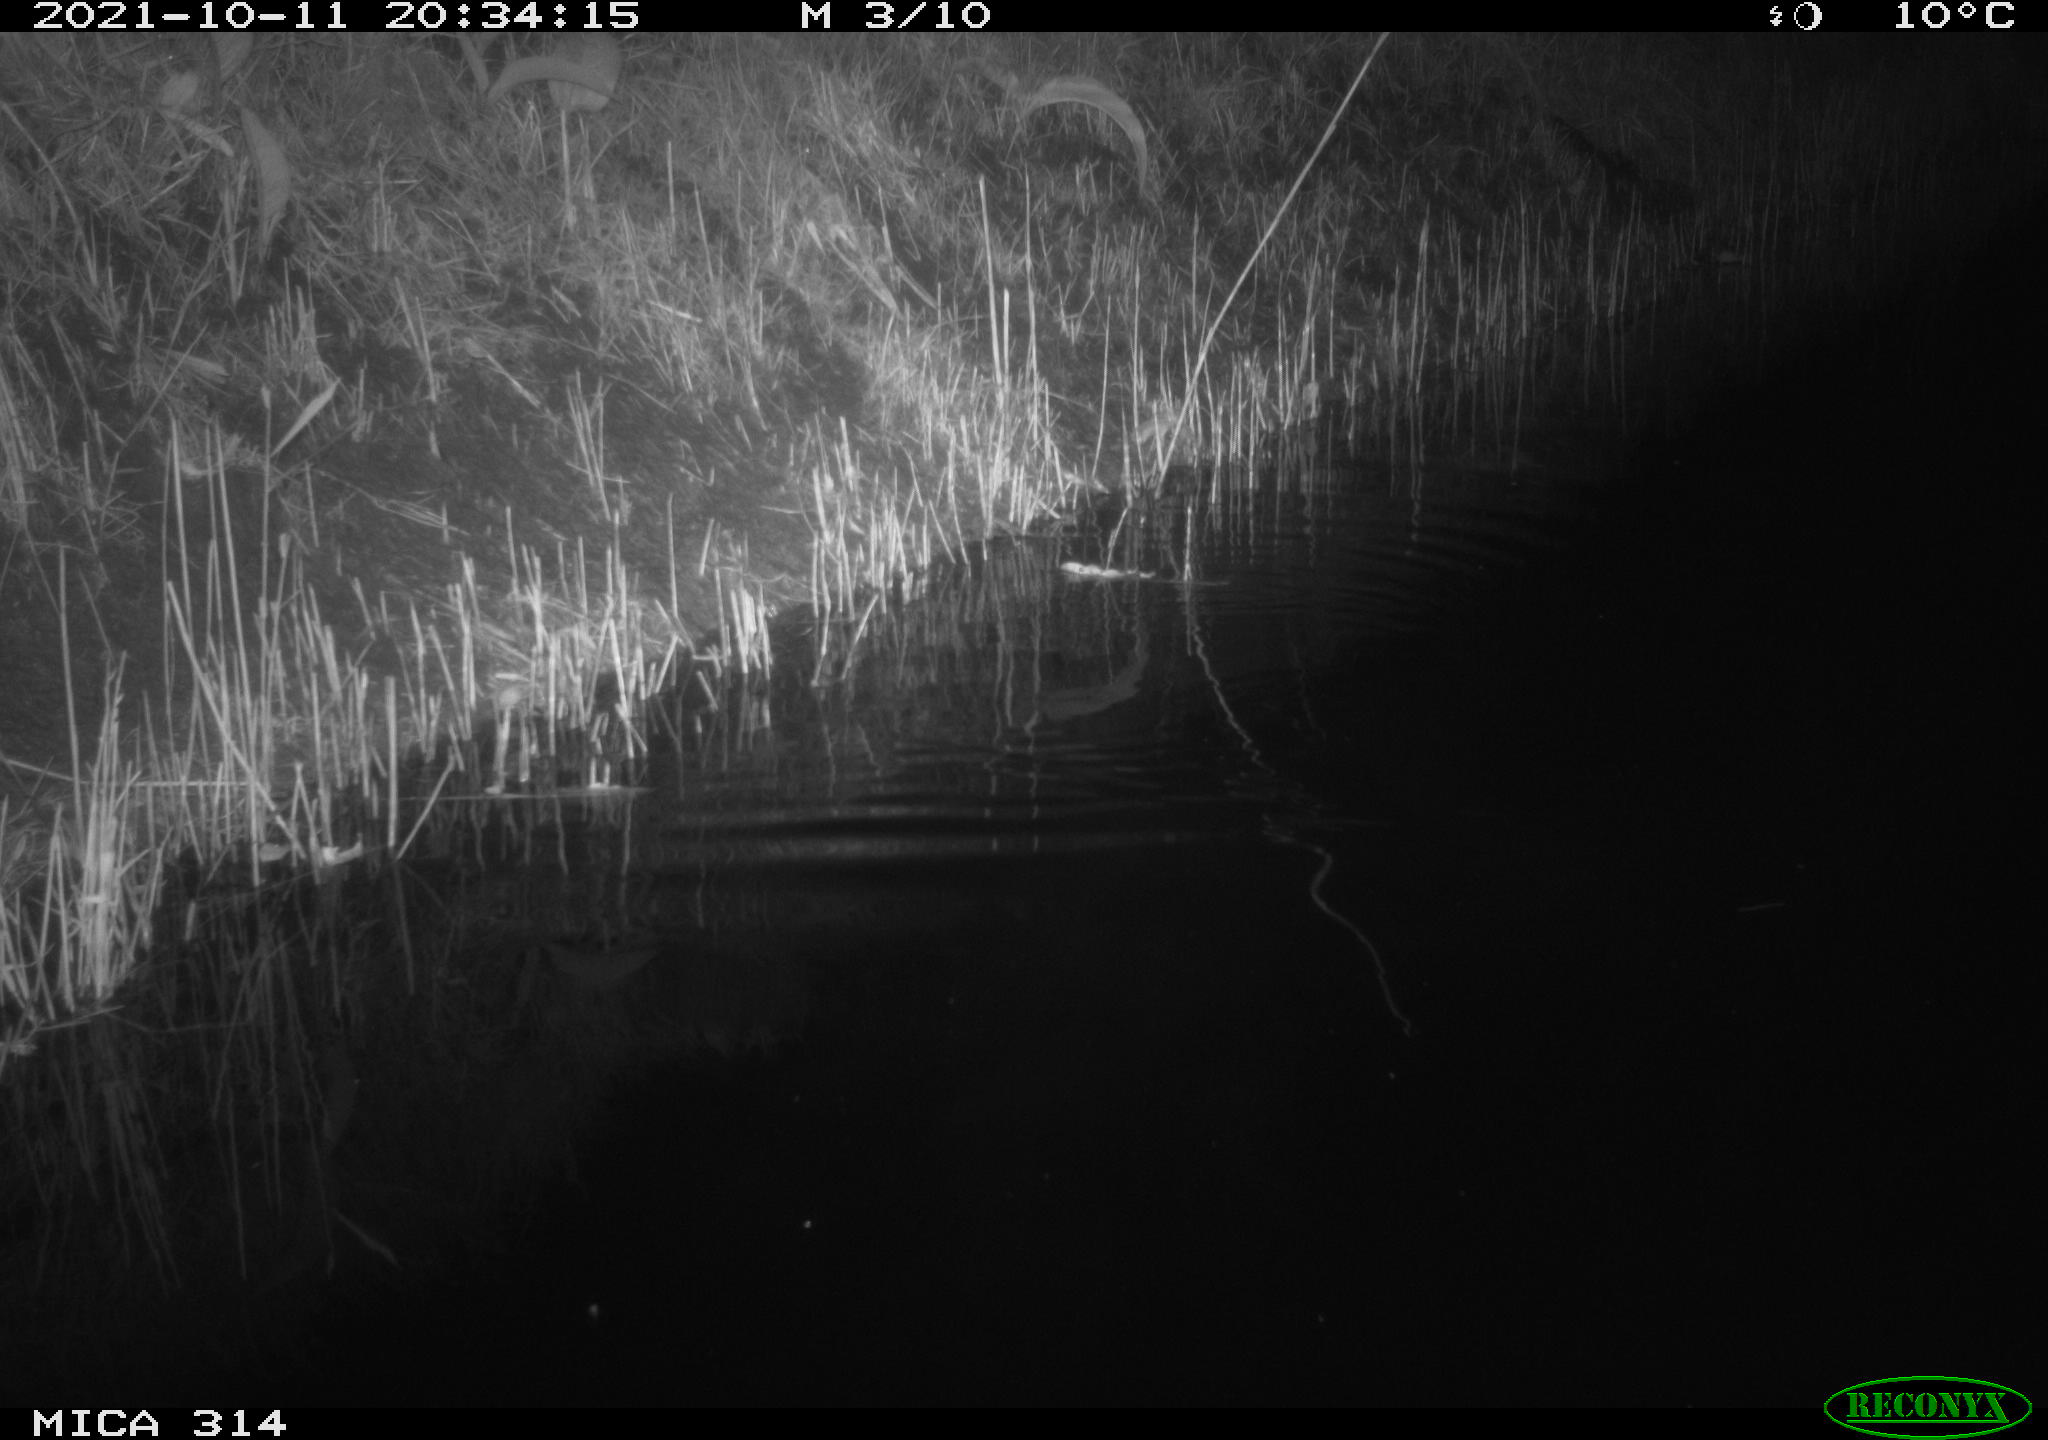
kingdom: Animalia
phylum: Chordata
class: Mammalia
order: Rodentia
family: Muridae
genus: Rattus
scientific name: Rattus norvegicus
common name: Brown rat
